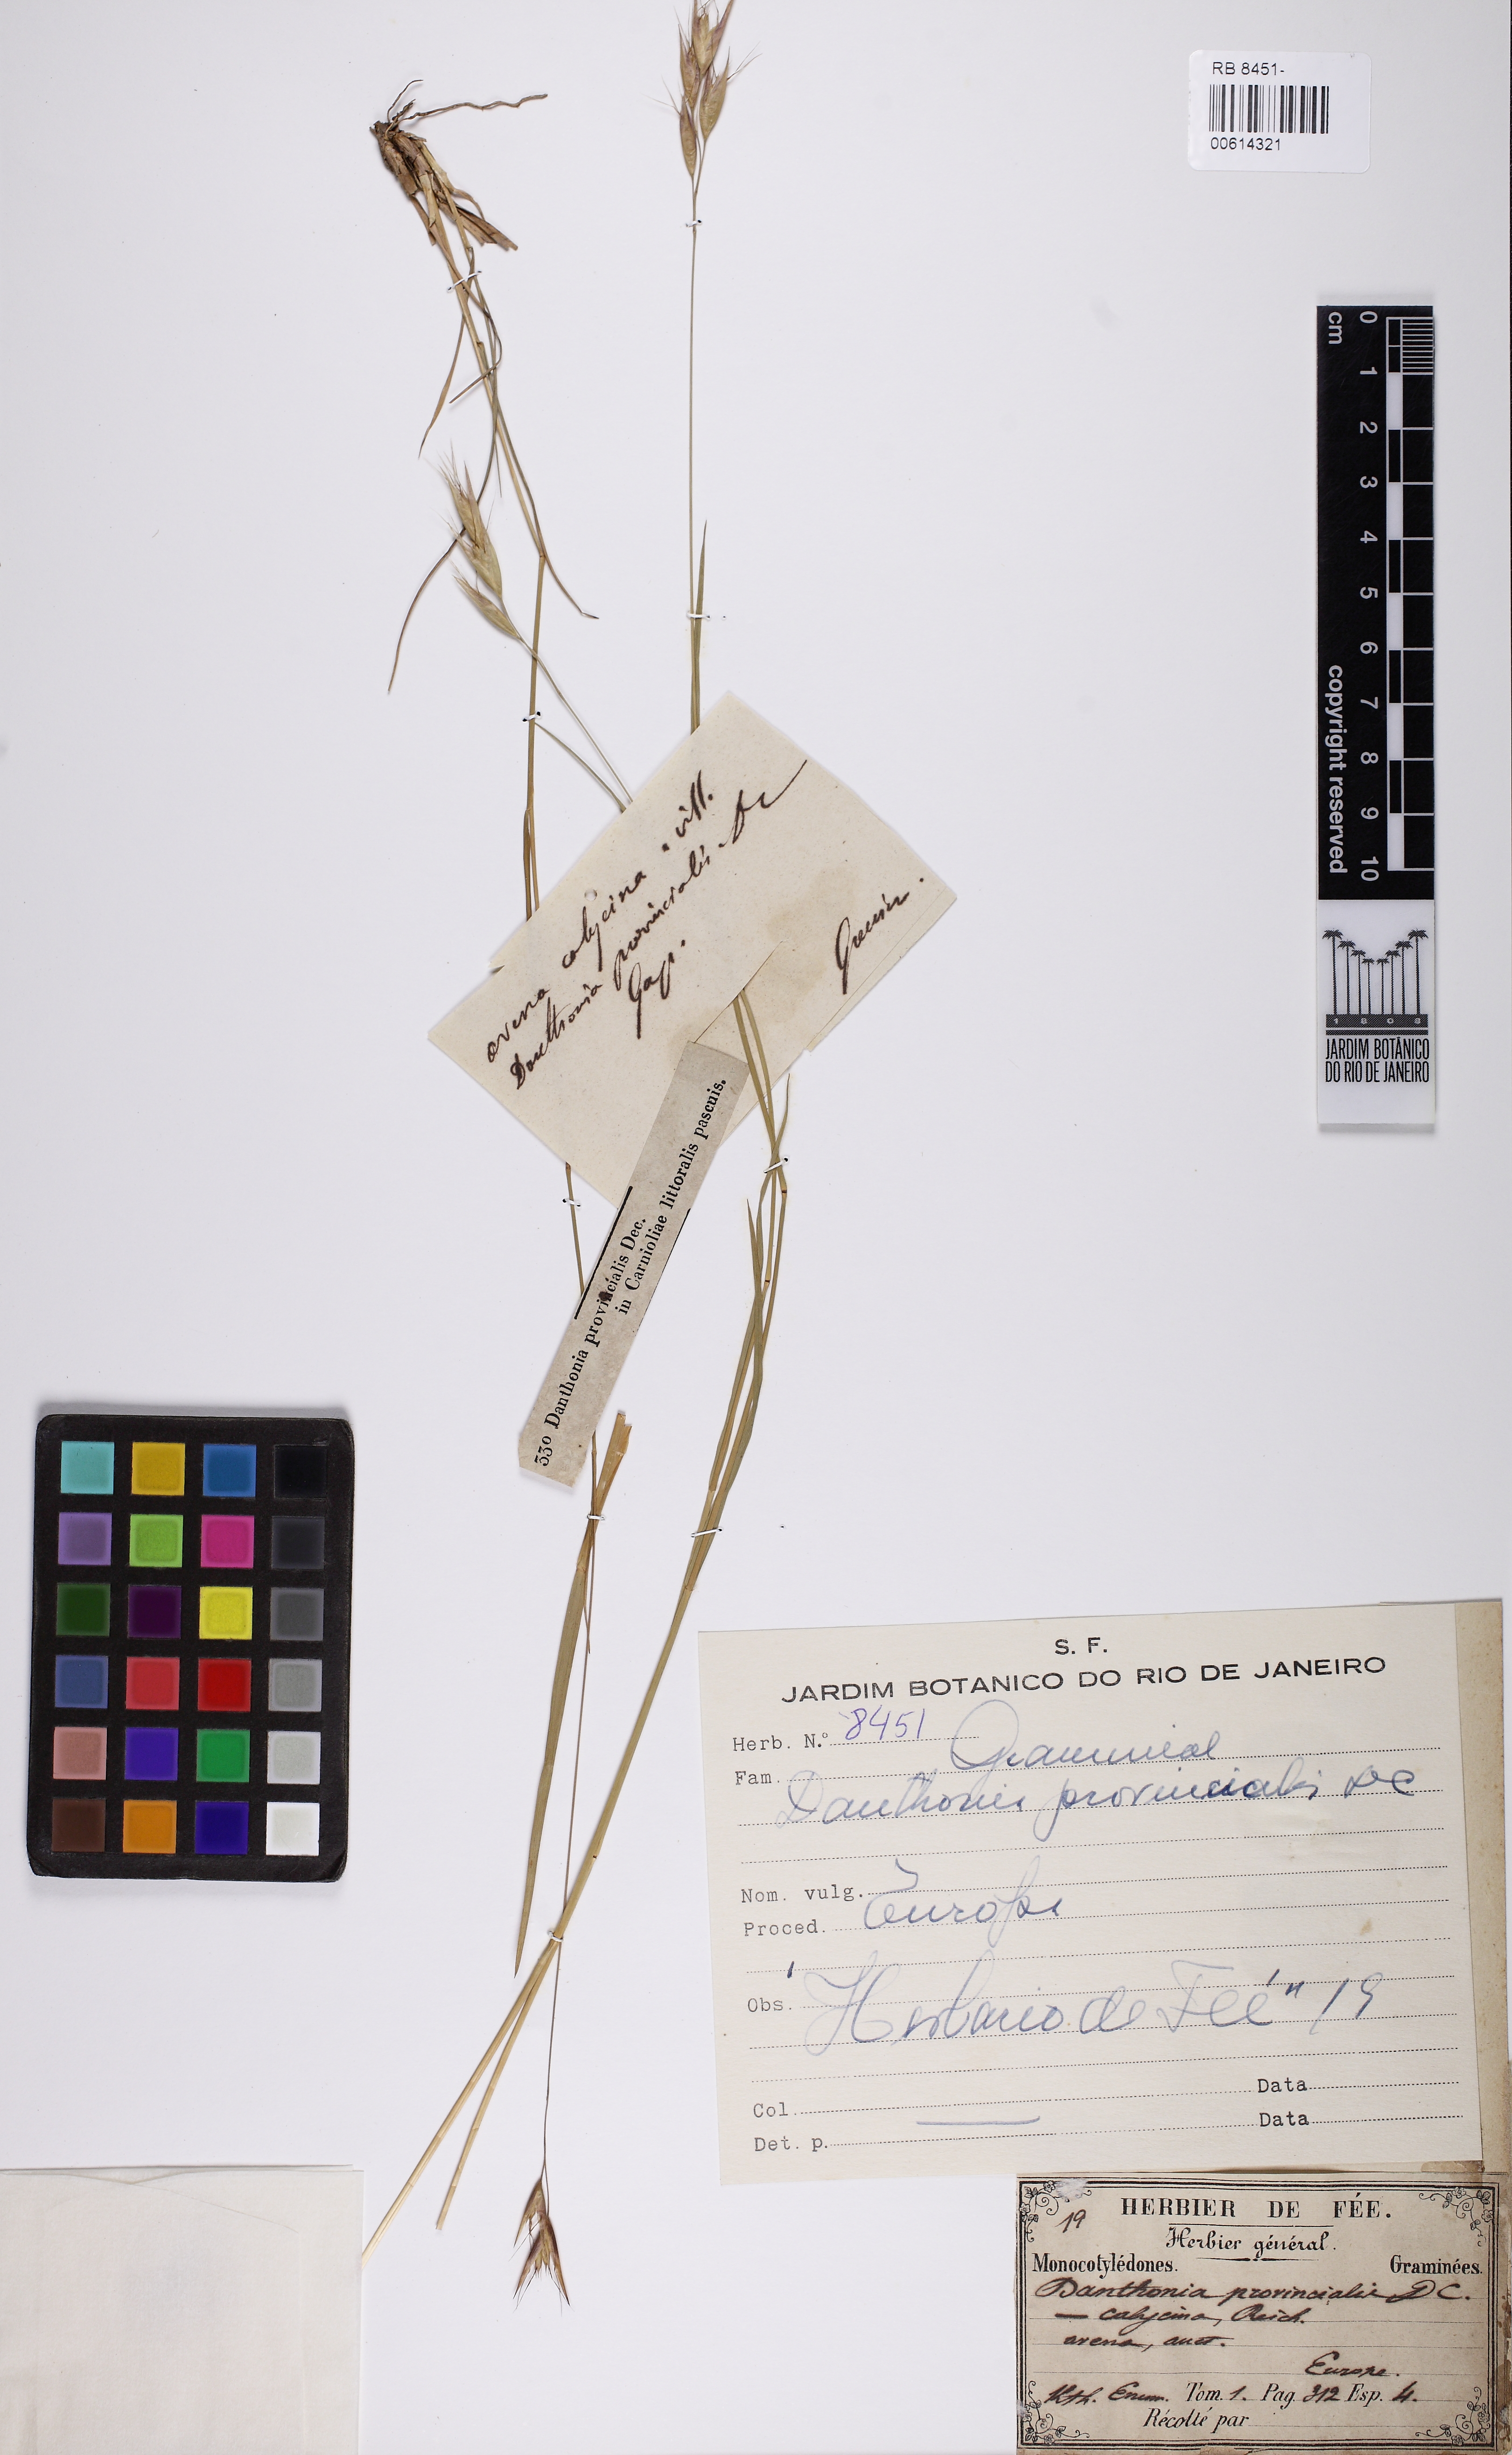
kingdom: Plantae
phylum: Tracheophyta
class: Liliopsida
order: Poales
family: Poaceae
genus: Danthonia
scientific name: Danthonia alpina
